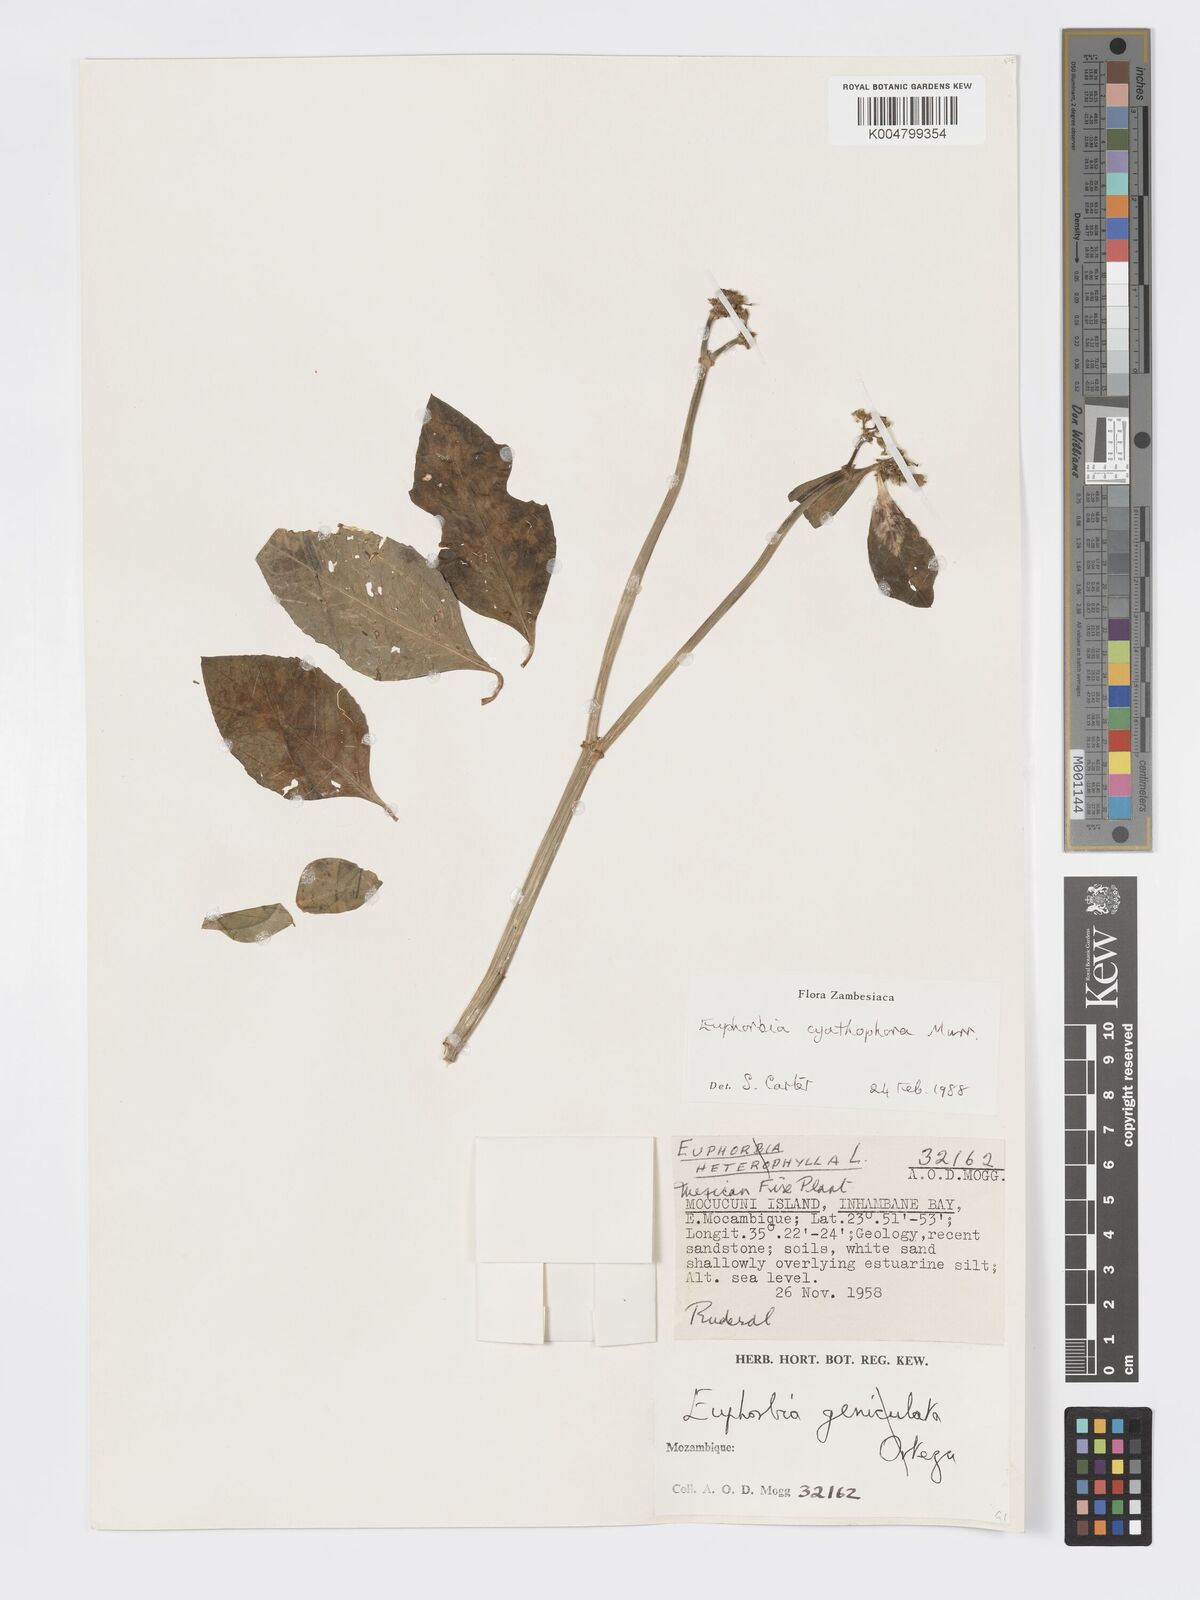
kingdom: Plantae
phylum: Tracheophyta
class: Magnoliopsida
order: Malpighiales
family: Euphorbiaceae
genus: Euphorbia
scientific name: Euphorbia heterophylla
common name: Mexican fireplant
